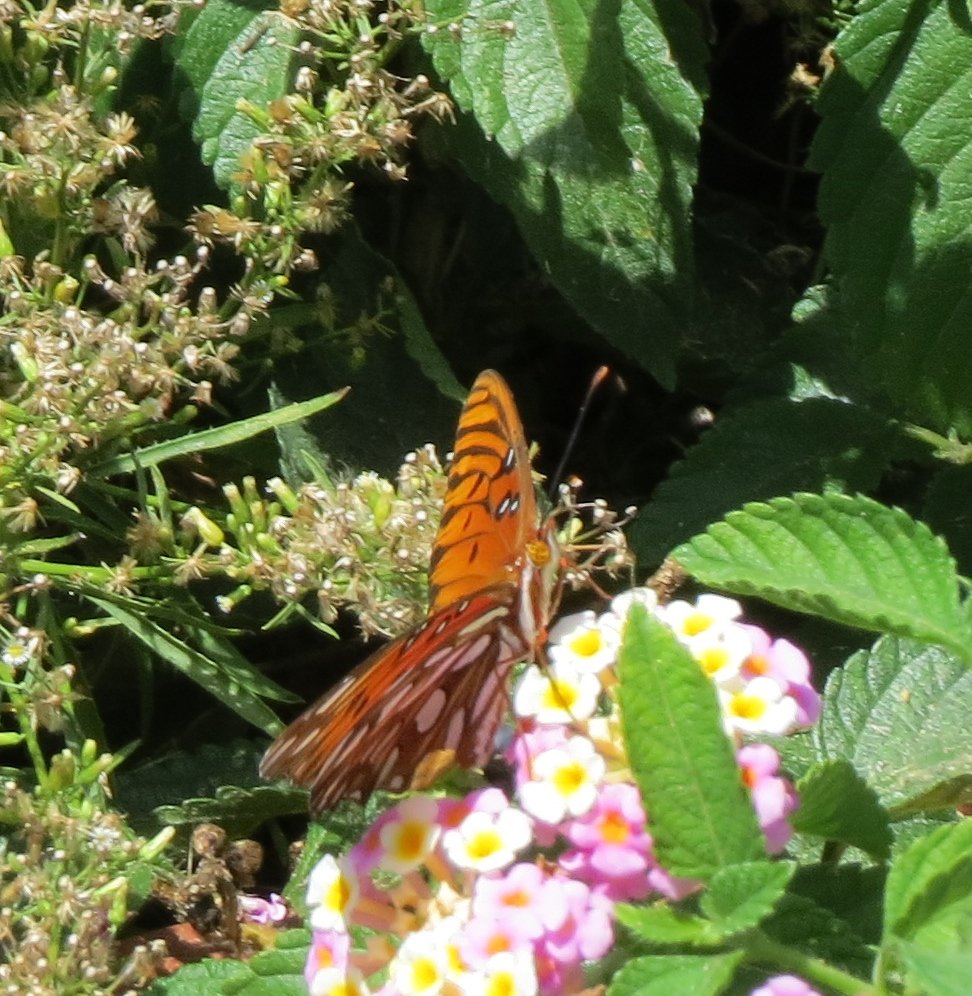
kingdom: Animalia
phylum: Arthropoda
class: Insecta
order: Lepidoptera
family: Nymphalidae
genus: Dione
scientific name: Dione vanillae
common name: Gulf Fritillary
